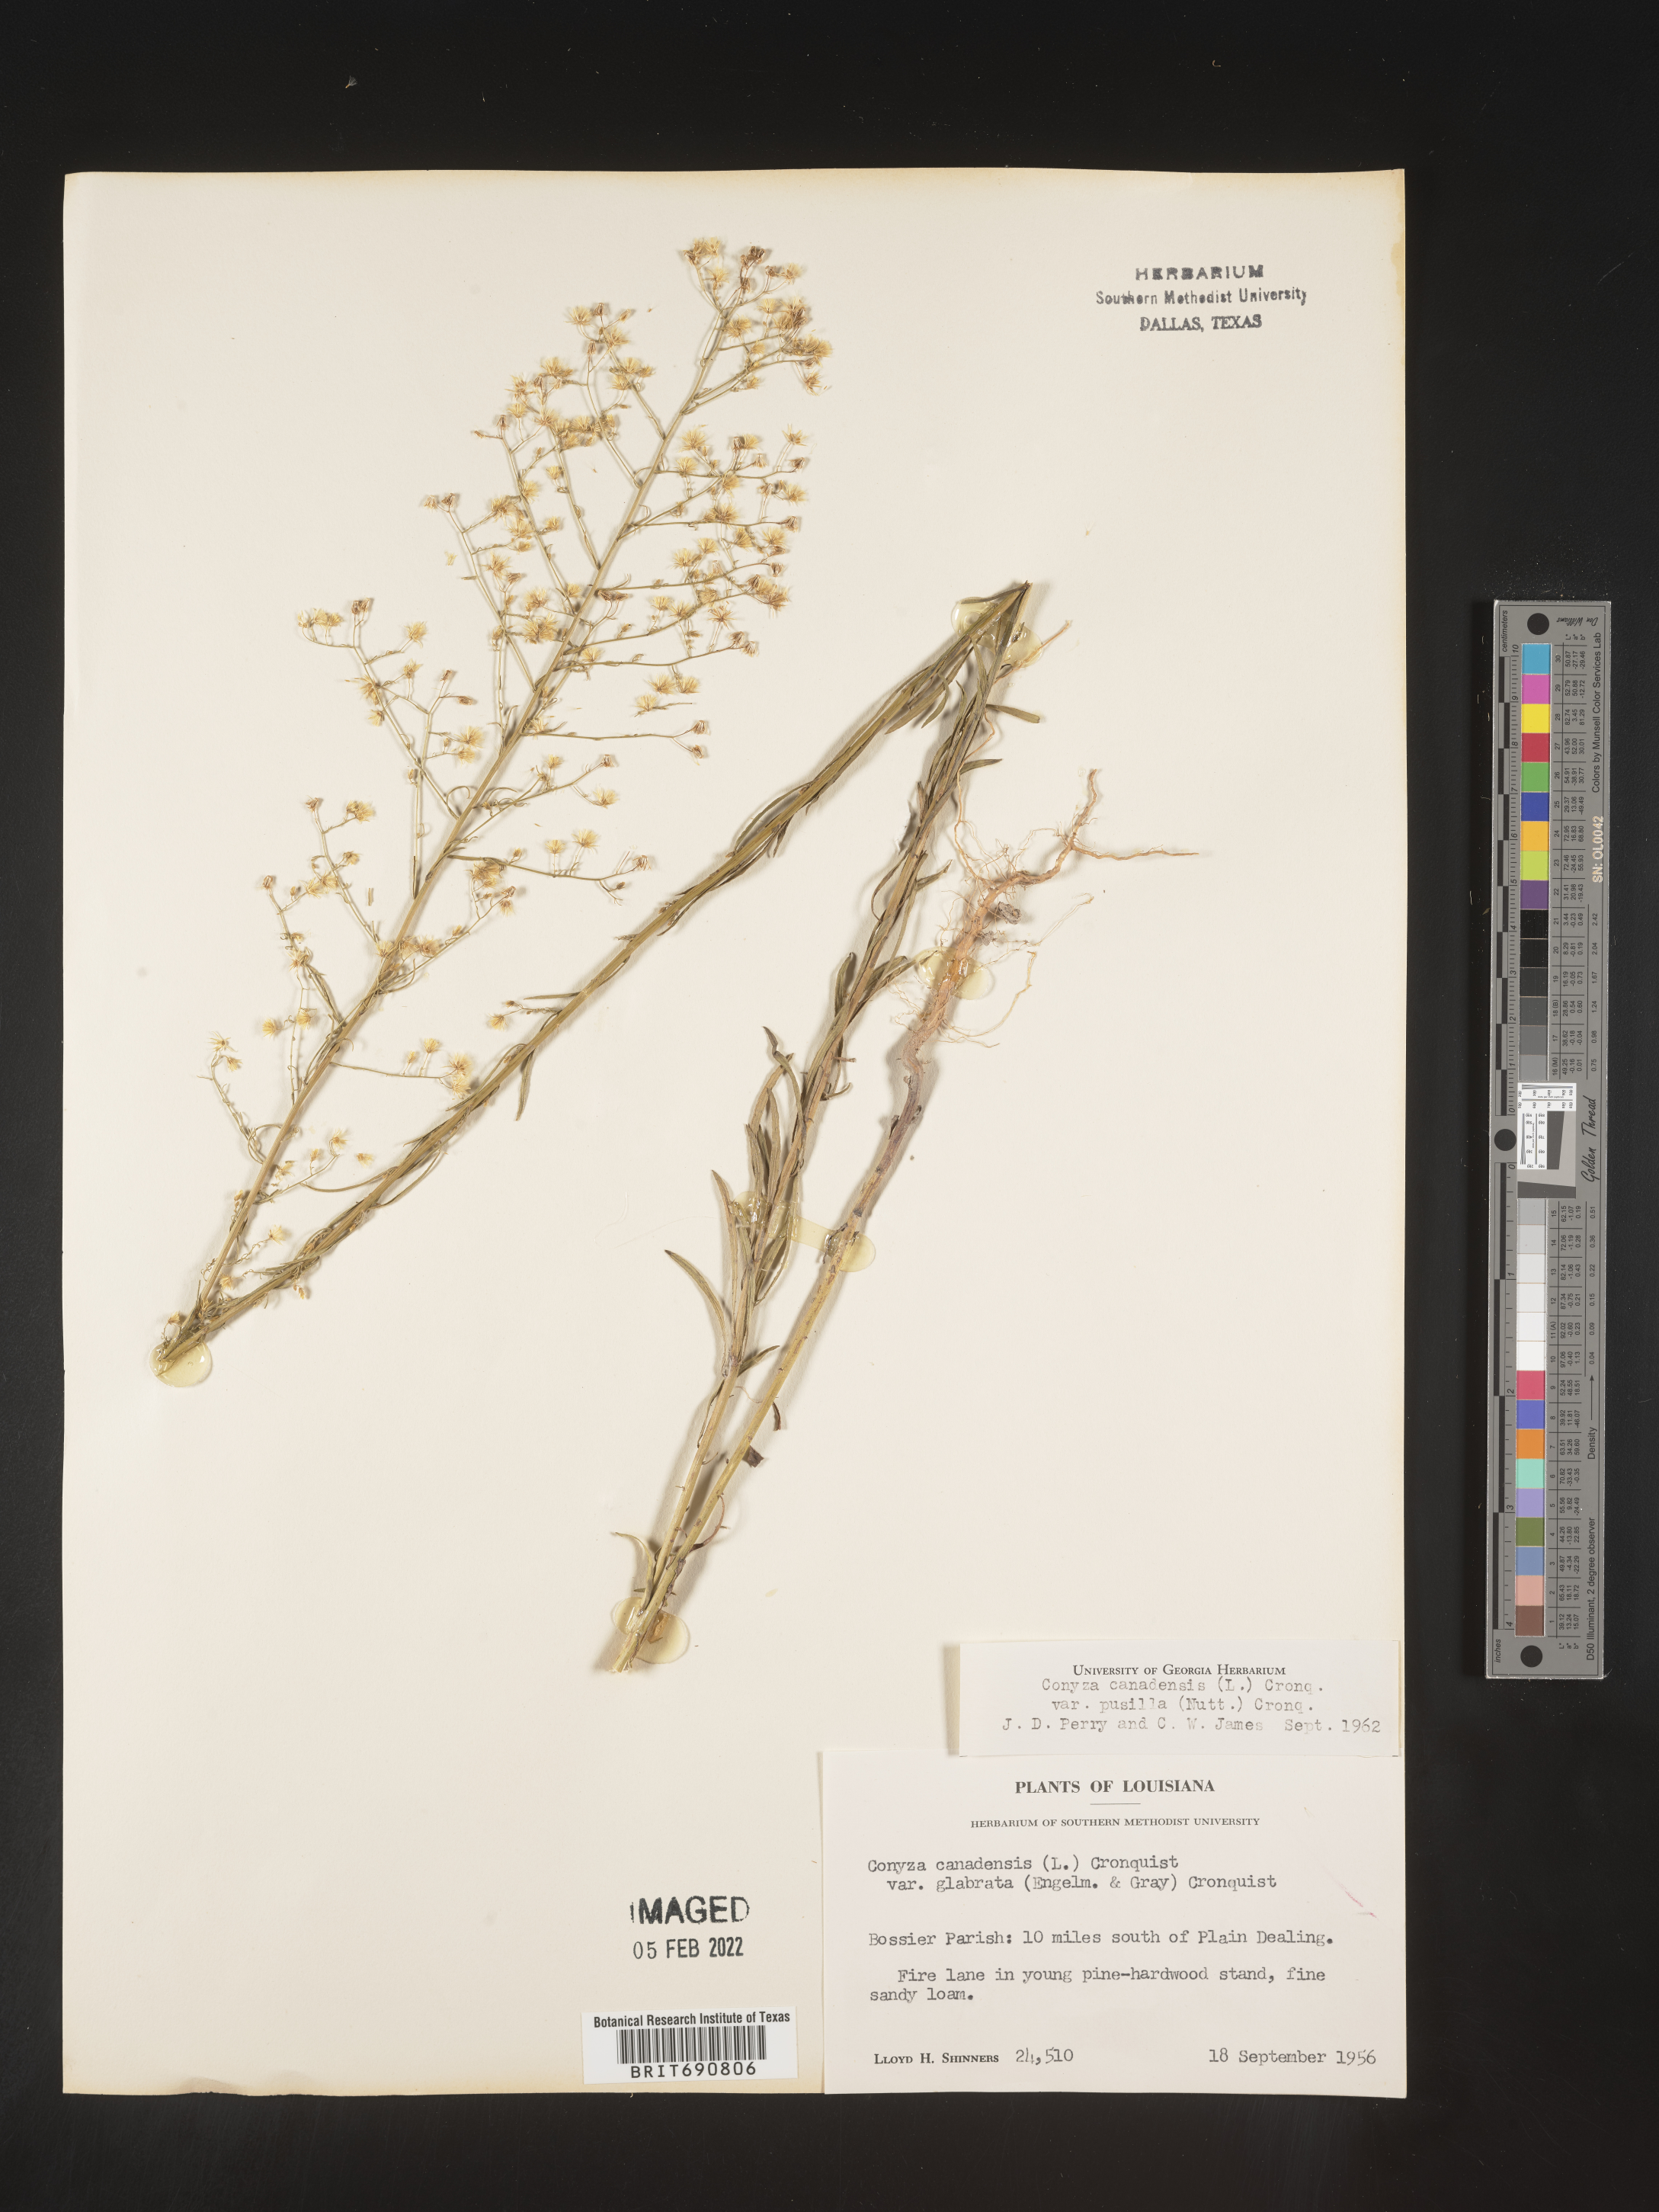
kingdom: Plantae
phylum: Tracheophyta
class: Magnoliopsida
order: Asterales
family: Asteraceae
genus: Erigeron
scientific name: Erigeron canadensis
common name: Canadian fleabane
